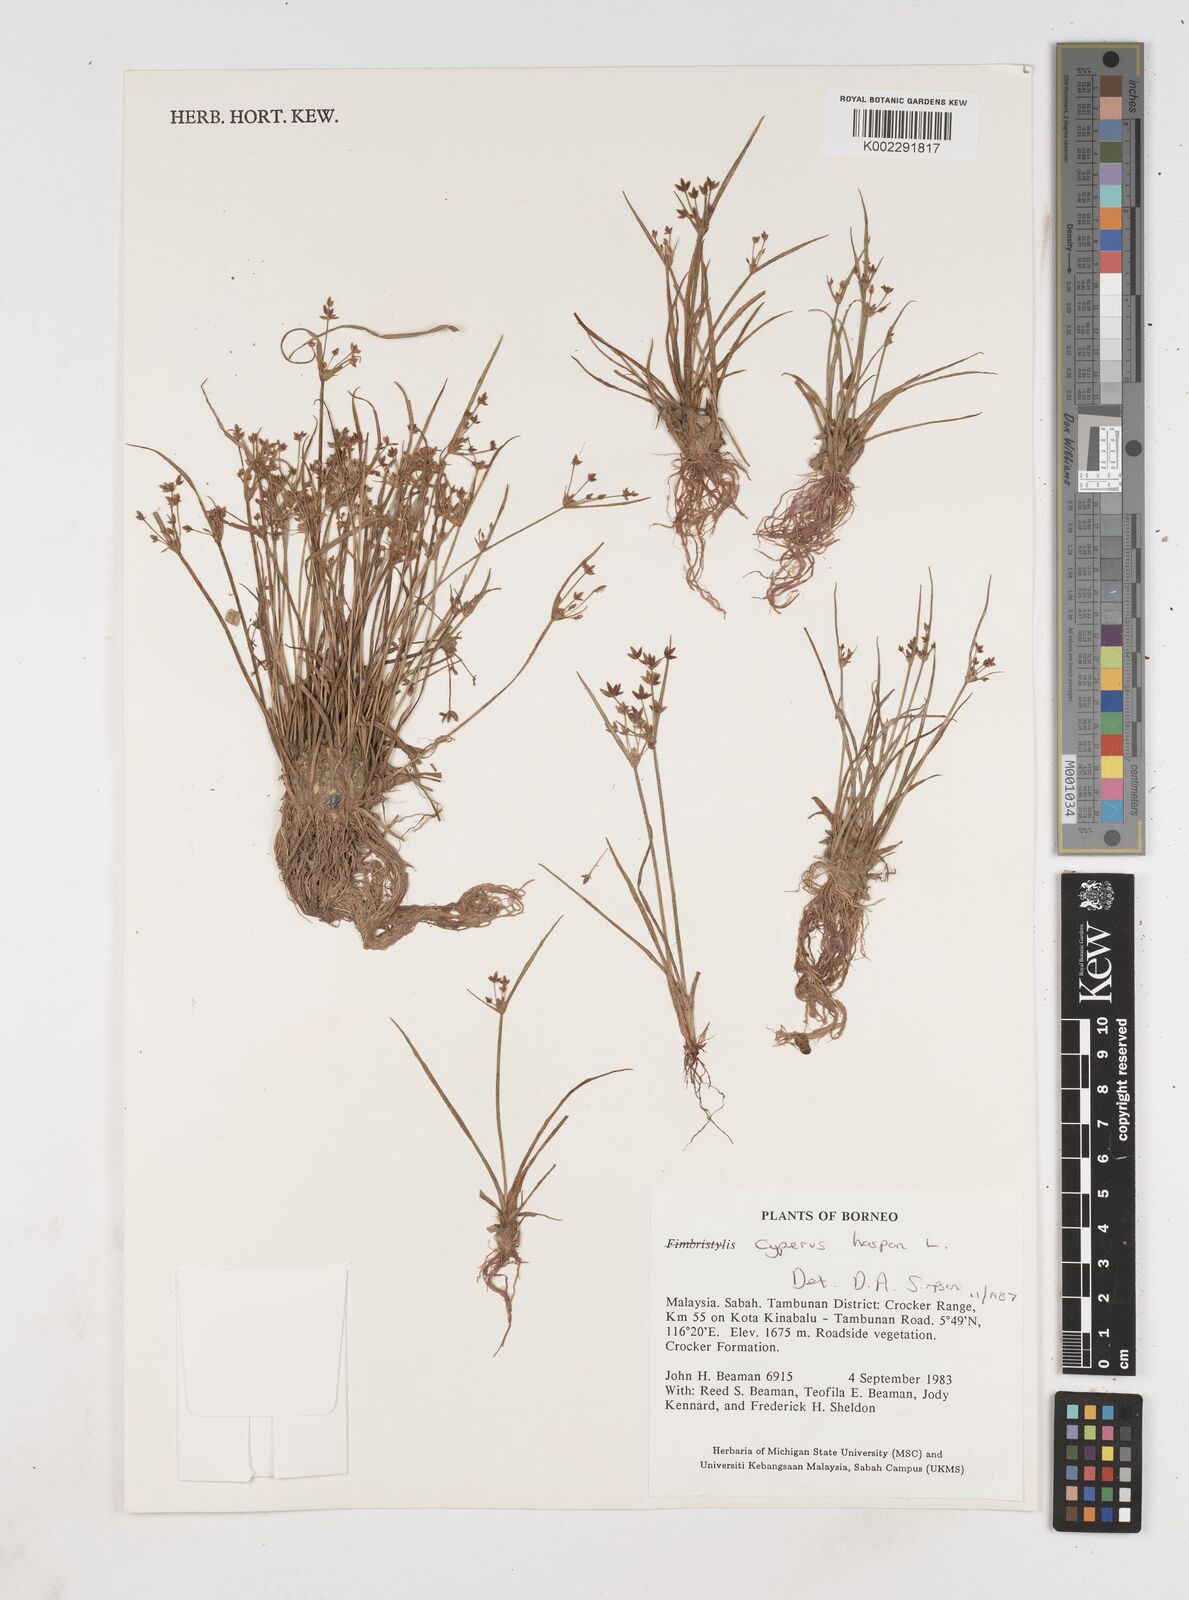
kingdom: Plantae
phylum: Tracheophyta
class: Liliopsida
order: Poales
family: Cyperaceae
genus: Cyperus
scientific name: Cyperus haspan
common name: Haspan flatsedge
